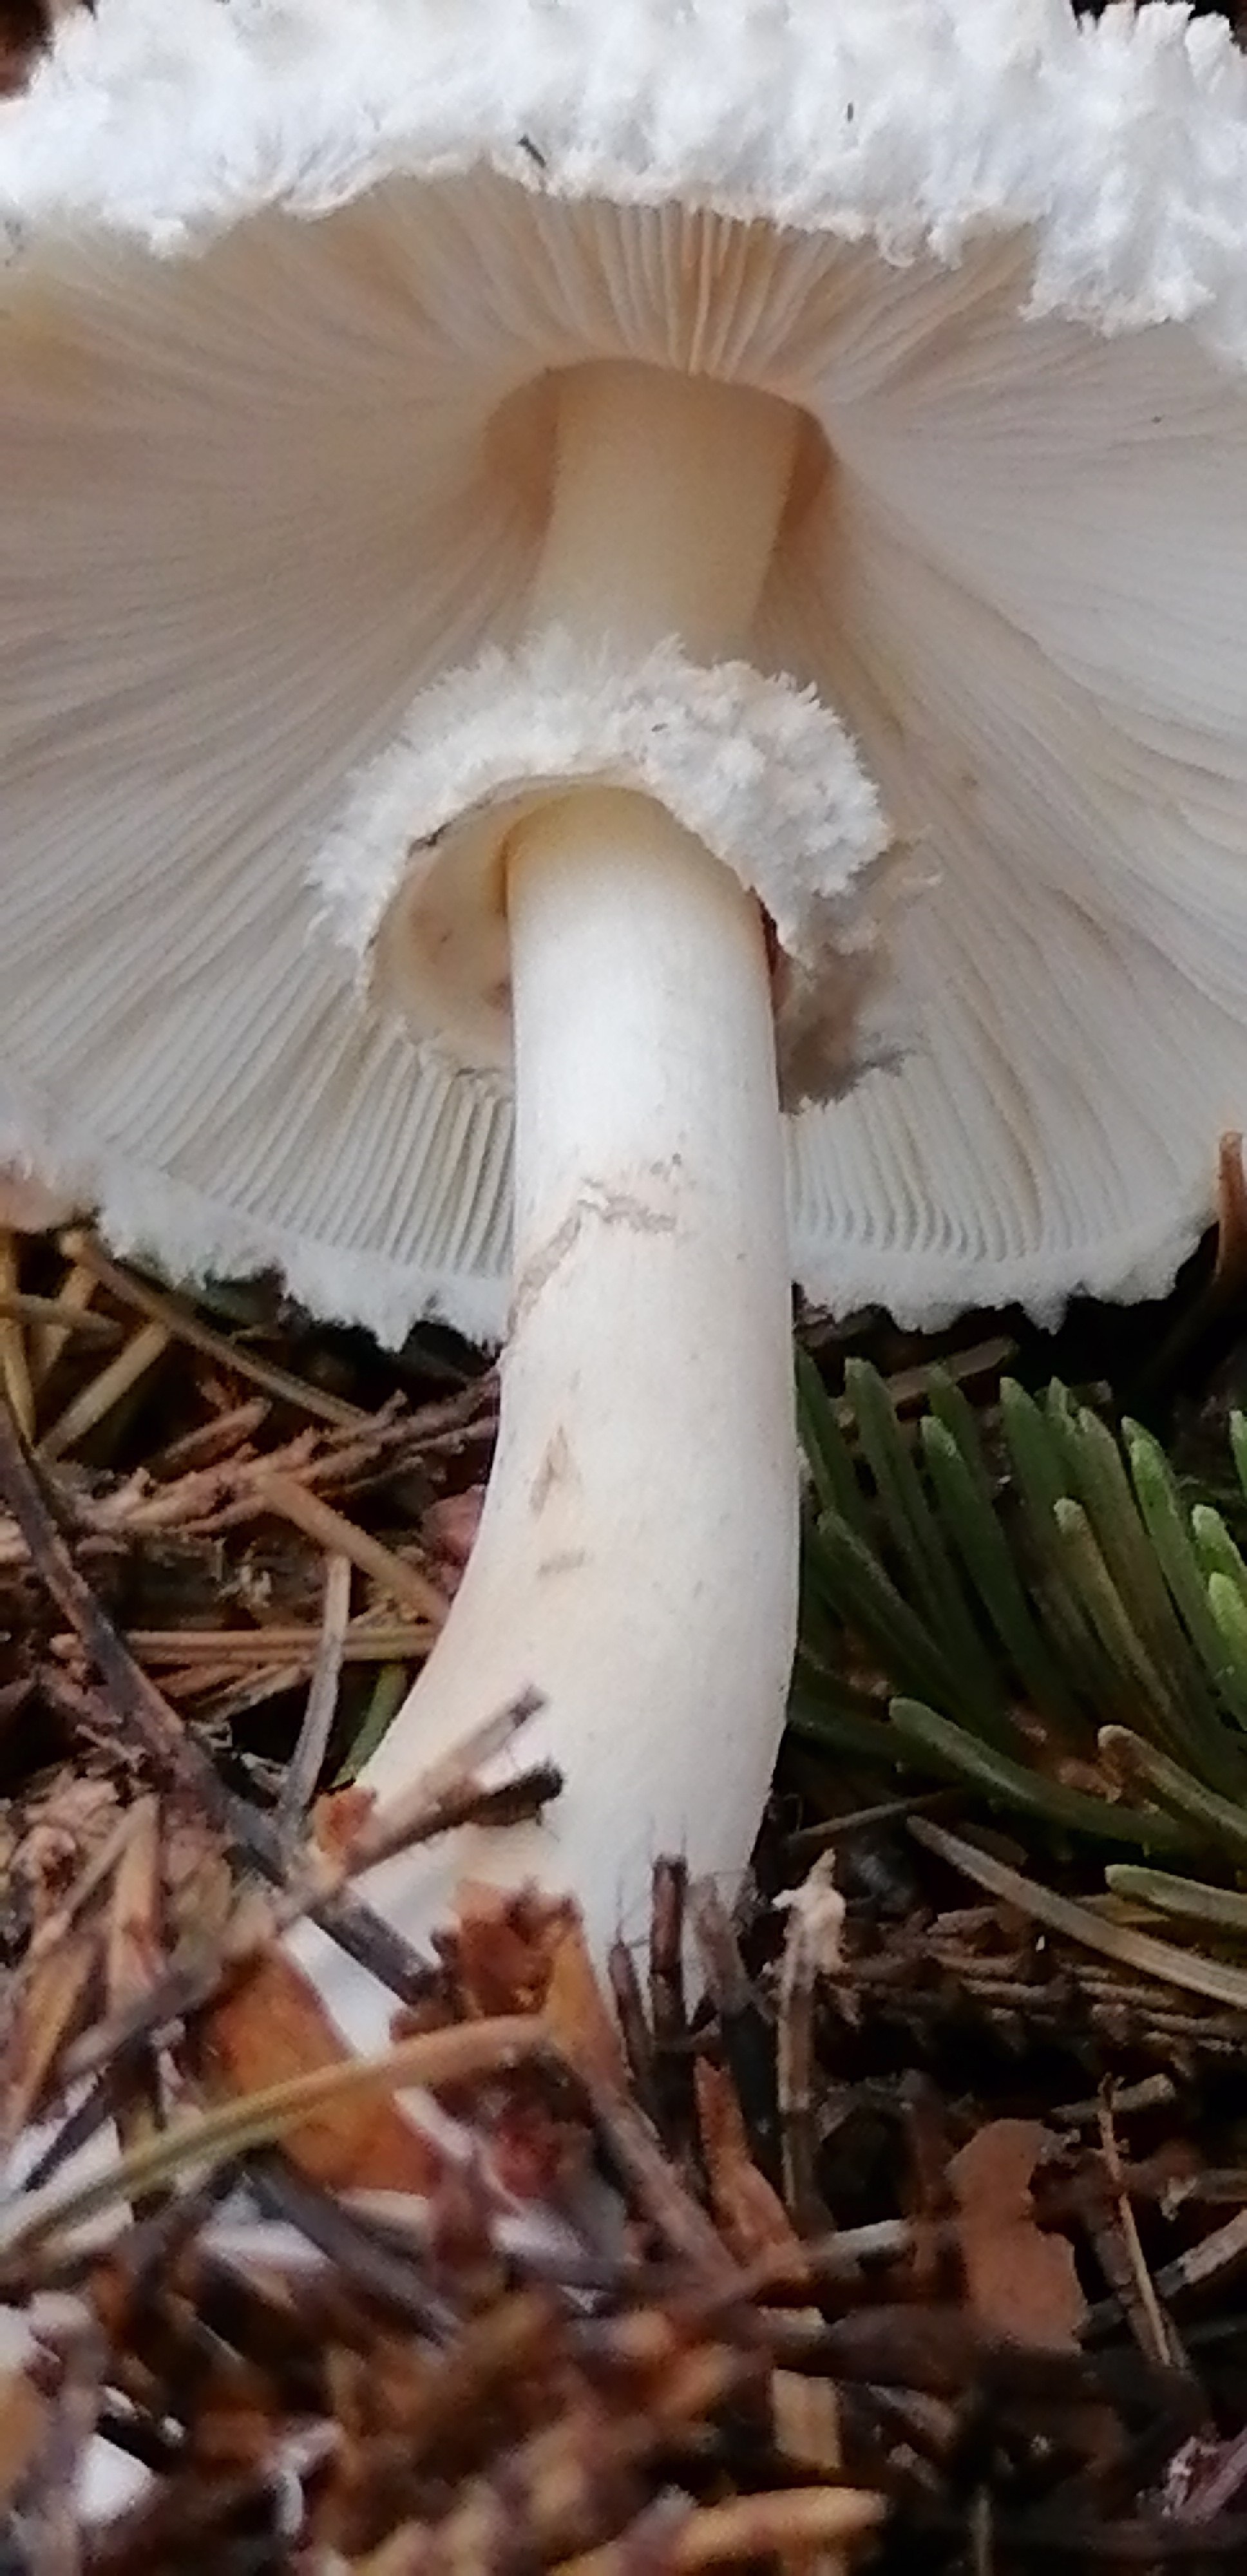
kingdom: Fungi
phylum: Basidiomycota
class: Agaricomycetes
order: Agaricales
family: Agaricaceae
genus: Leucoagaricus
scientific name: Leucoagaricus nympharum
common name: gran-silkehat
